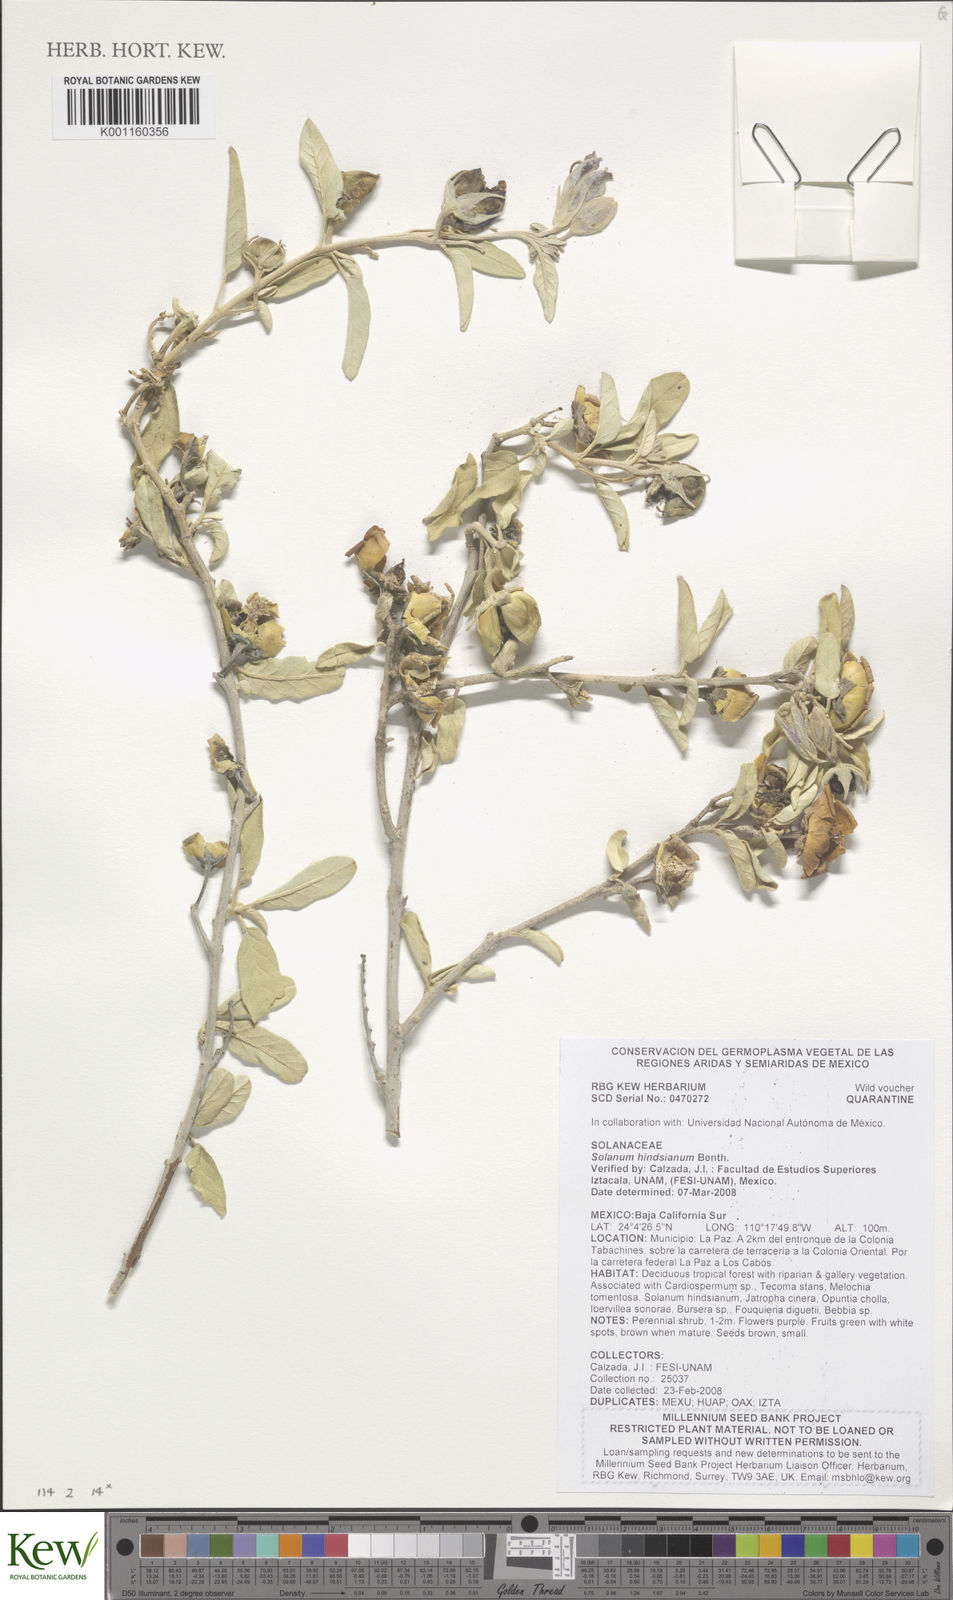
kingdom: Plantae
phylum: Tracheophyta
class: Magnoliopsida
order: Solanales
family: Solanaceae
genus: Solanum
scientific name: Solanum hindsianum
